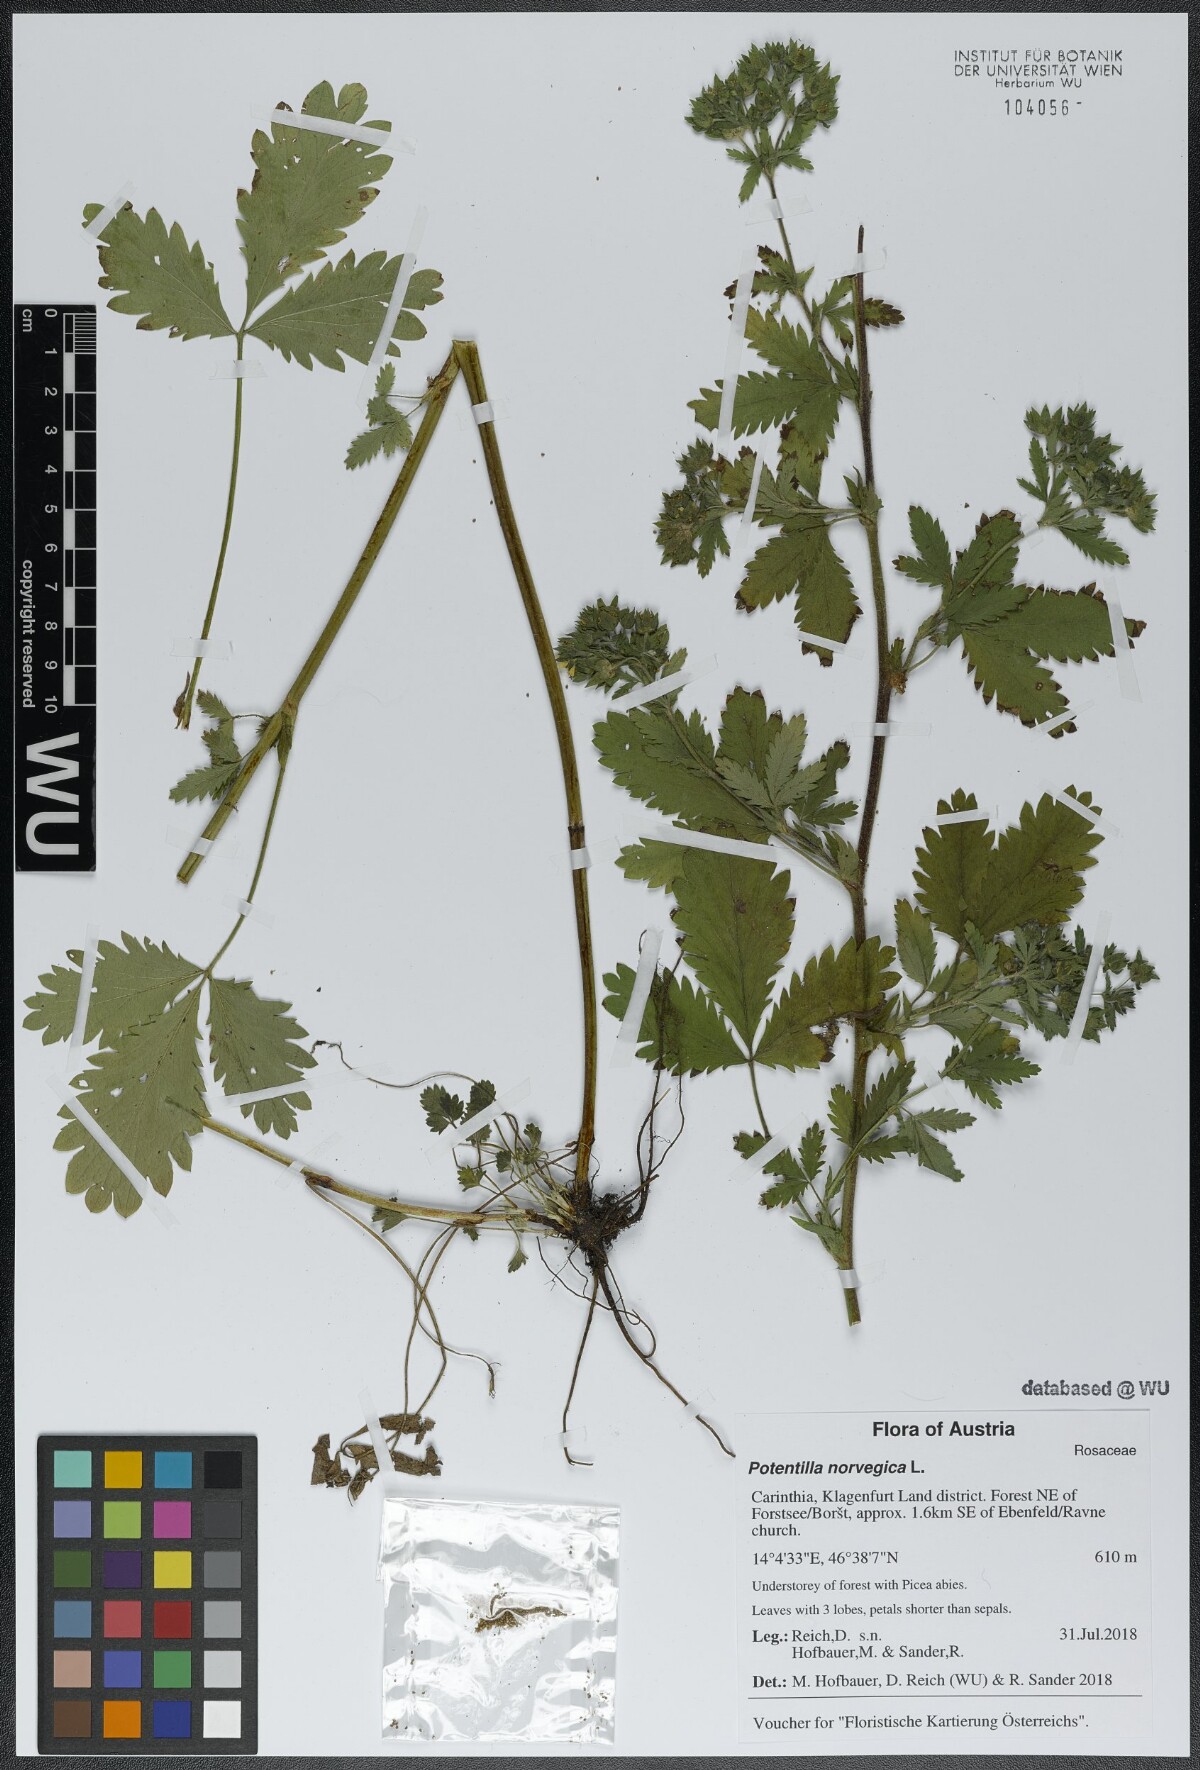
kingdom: Plantae
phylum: Tracheophyta
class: Magnoliopsida
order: Rosales
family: Rosaceae
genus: Potentilla
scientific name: Potentilla norvegica
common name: Ternate-leaved cinquefoil
